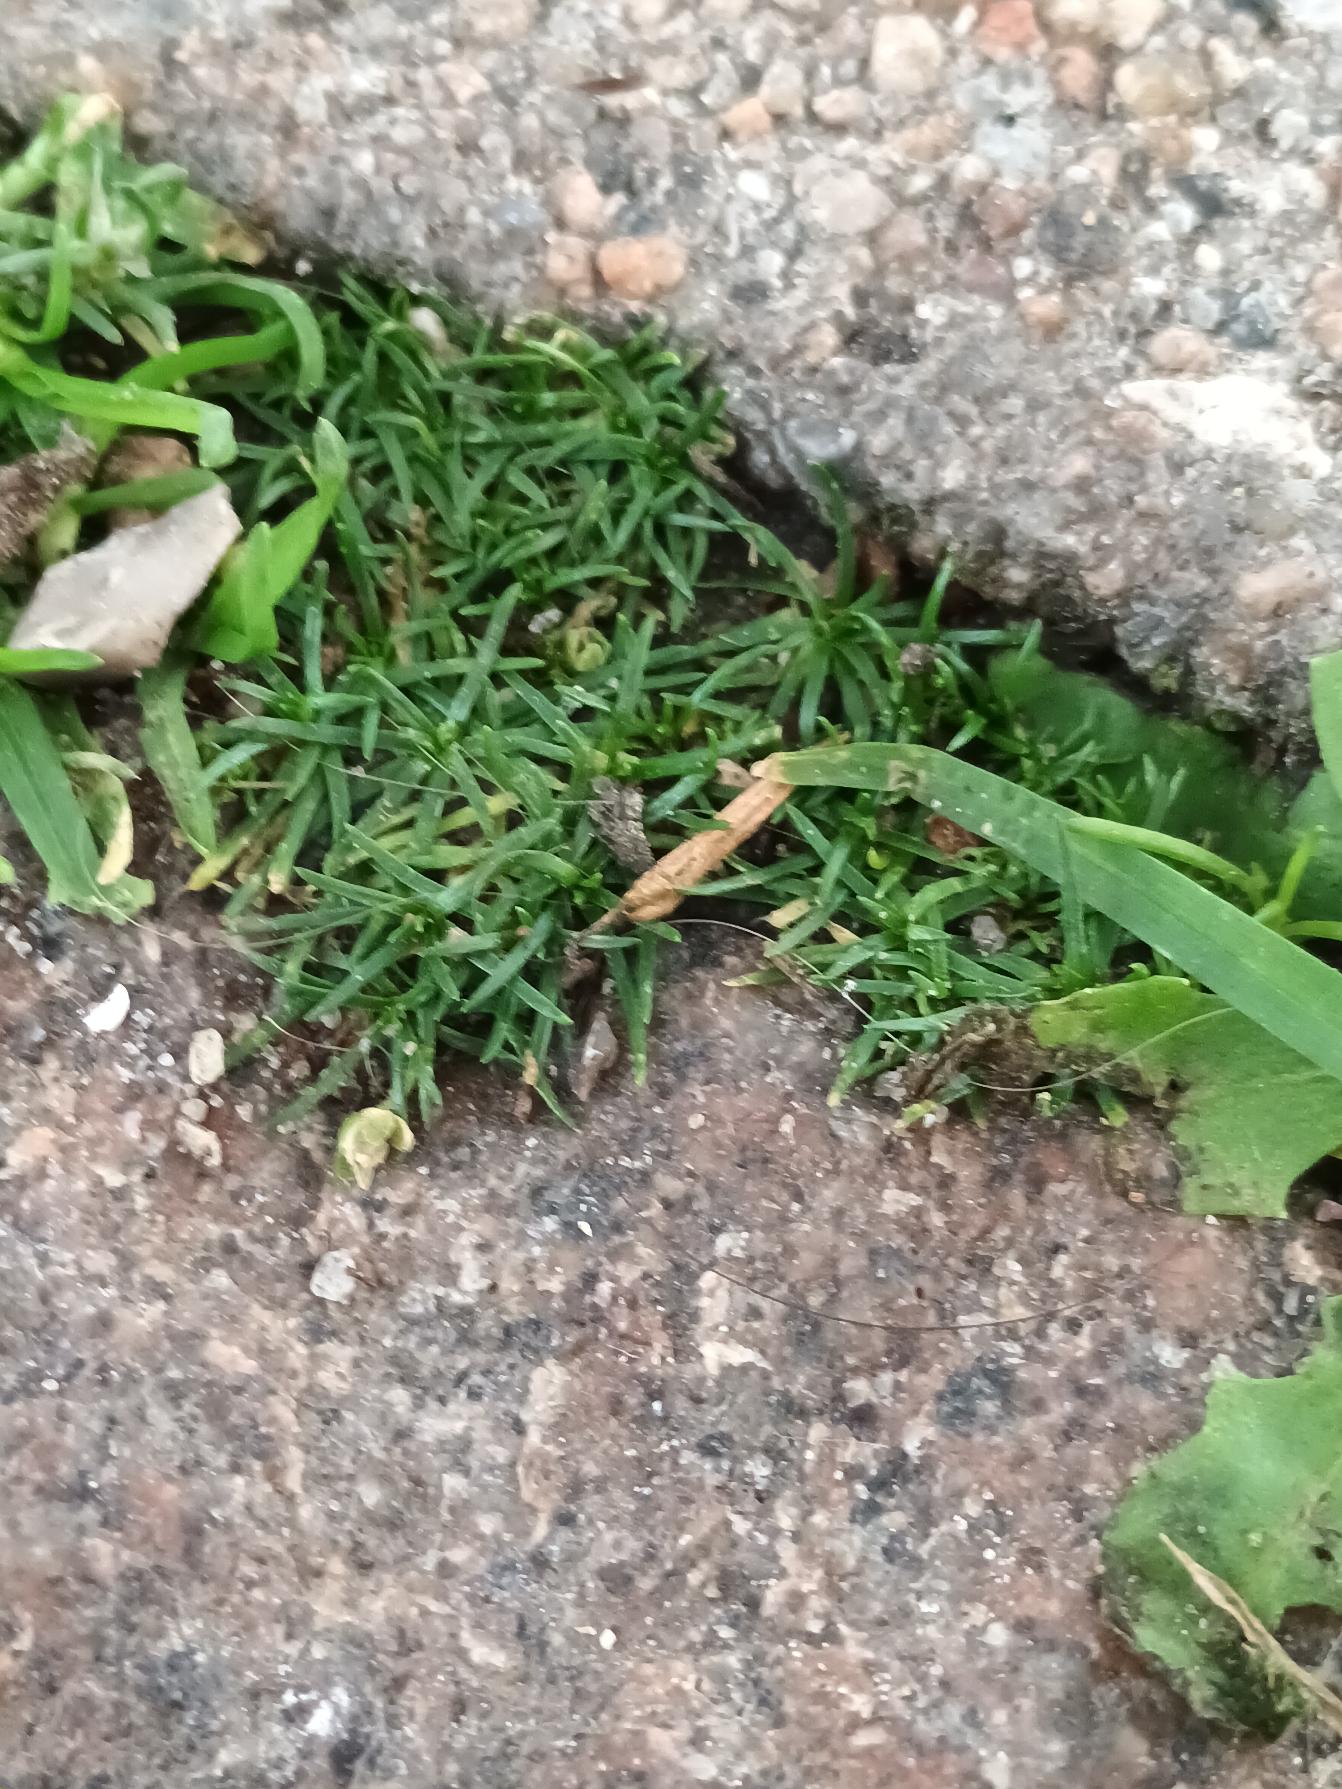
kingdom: Plantae
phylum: Tracheophyta
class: Magnoliopsida
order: Caryophyllales
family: Caryophyllaceae
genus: Sagina
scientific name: Sagina procumbens
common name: Almindelig firling
